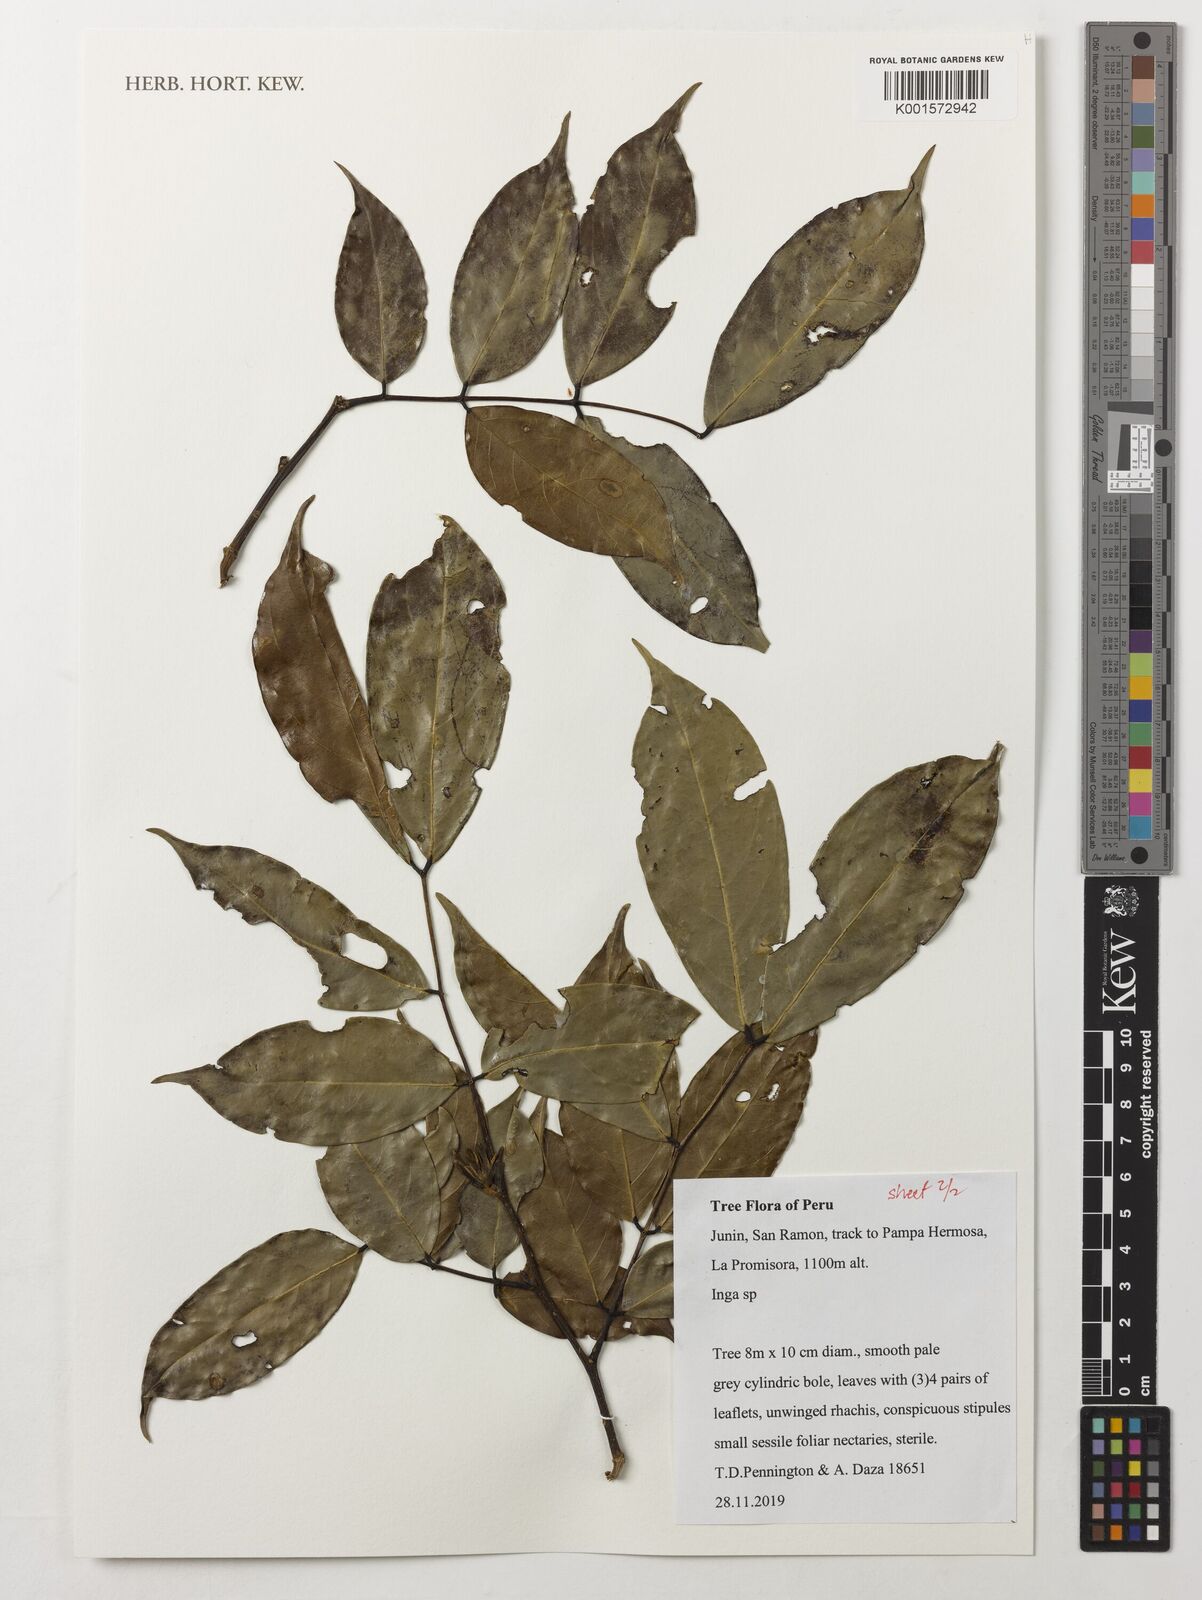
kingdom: Plantae
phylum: Tracheophyta
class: Magnoliopsida
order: Fabales
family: Fabaceae
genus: Inga
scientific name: Inga
